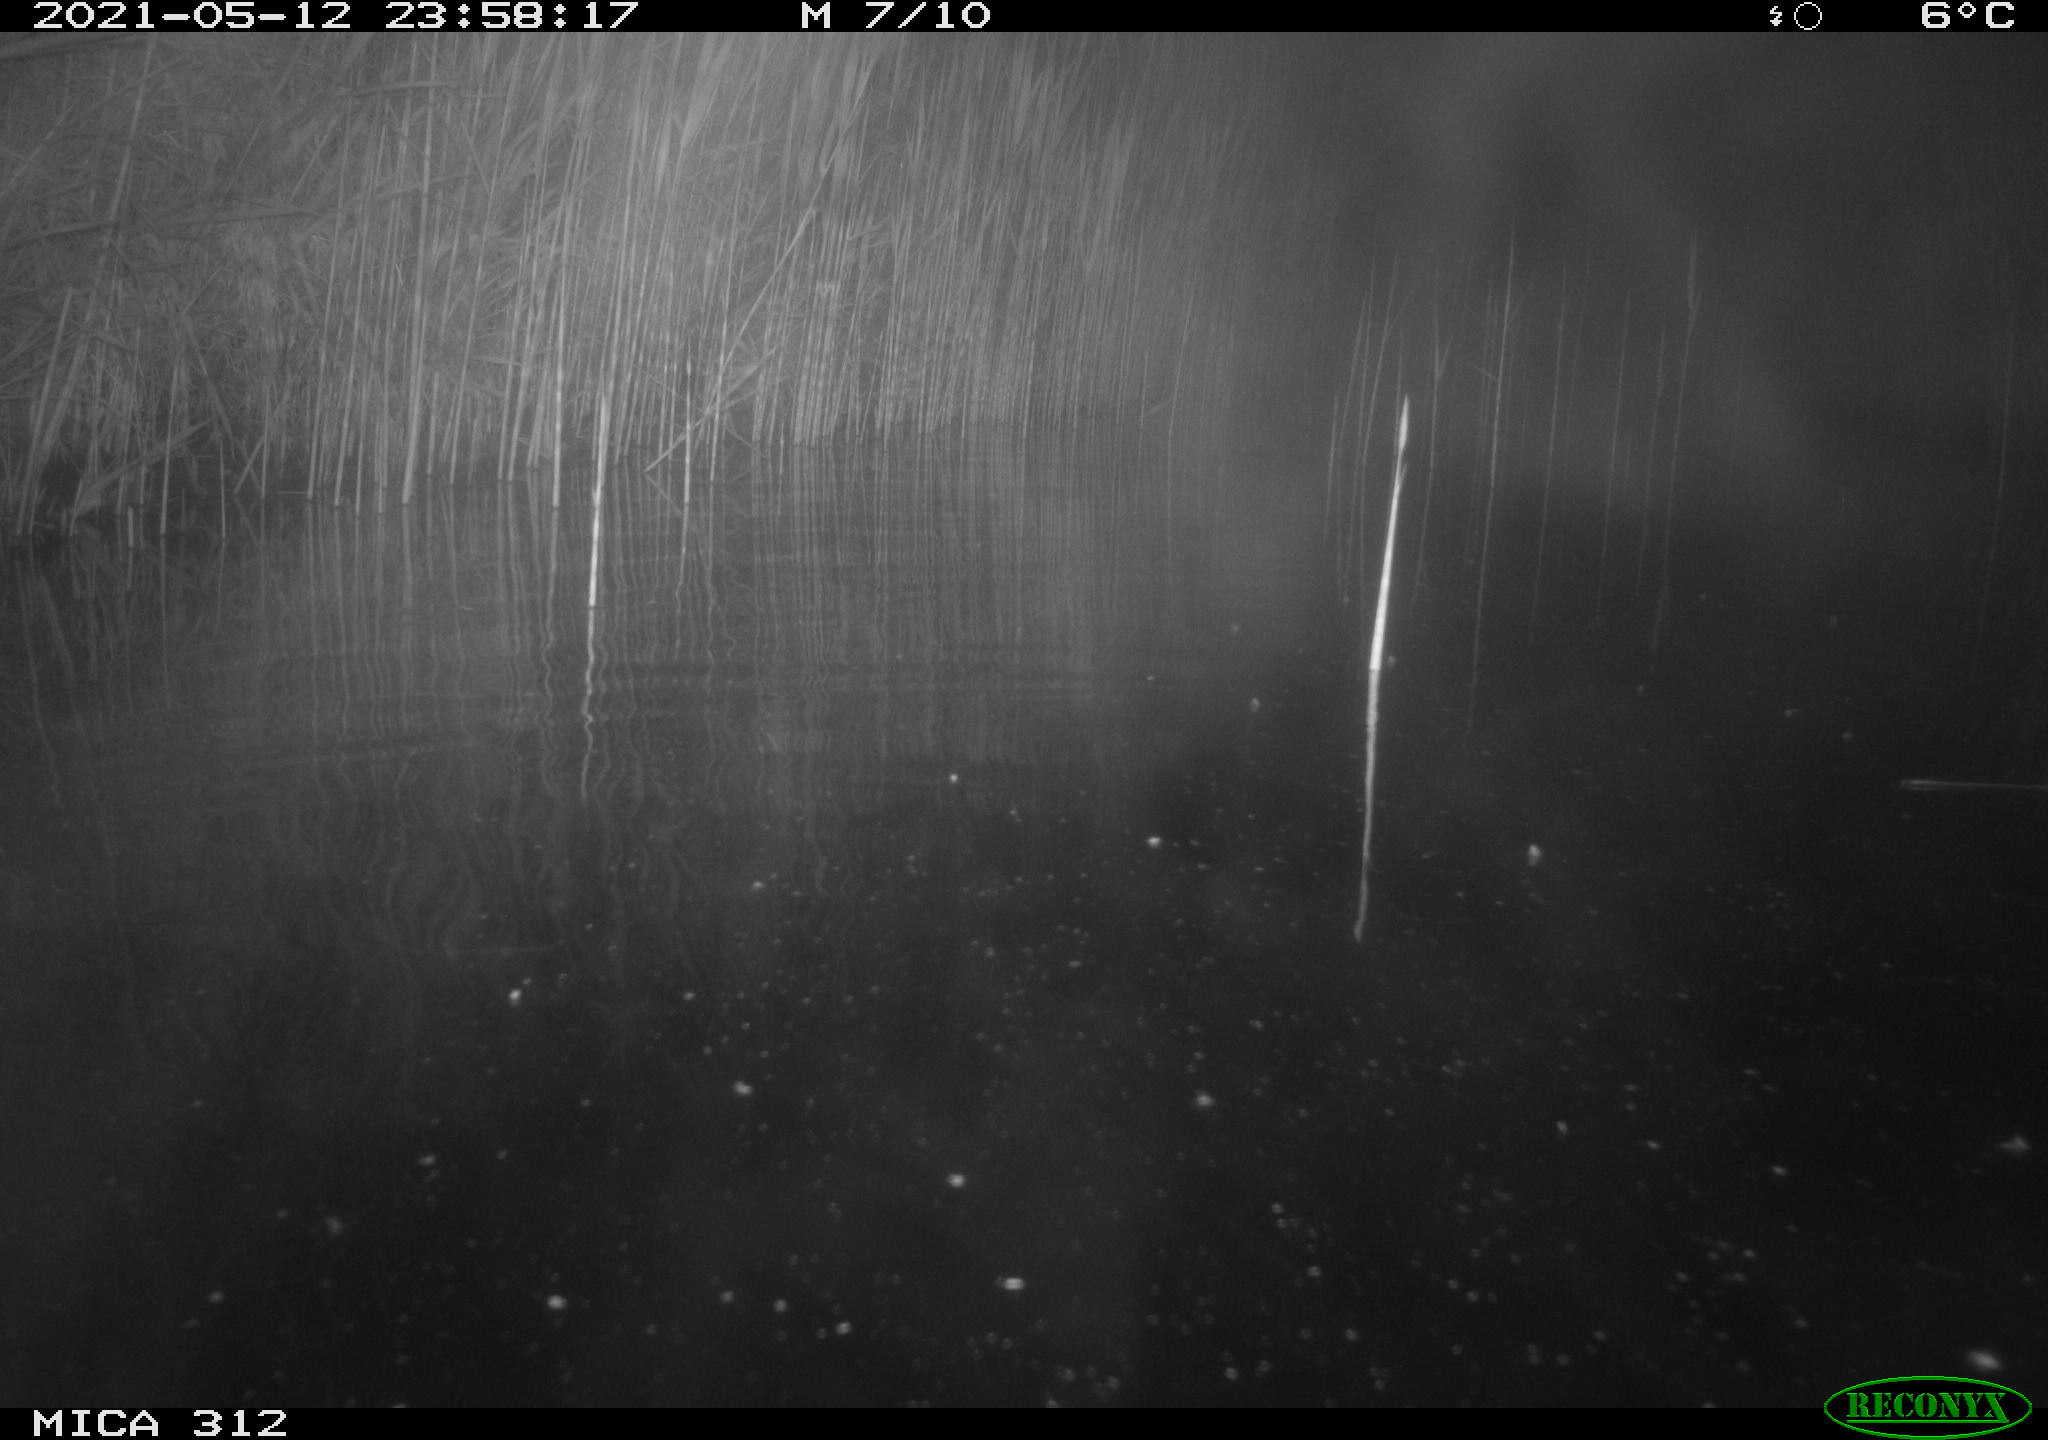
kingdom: Animalia
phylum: Chordata
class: Mammalia
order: Rodentia
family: Muridae
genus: Rattus
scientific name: Rattus norvegicus
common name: Brown rat
